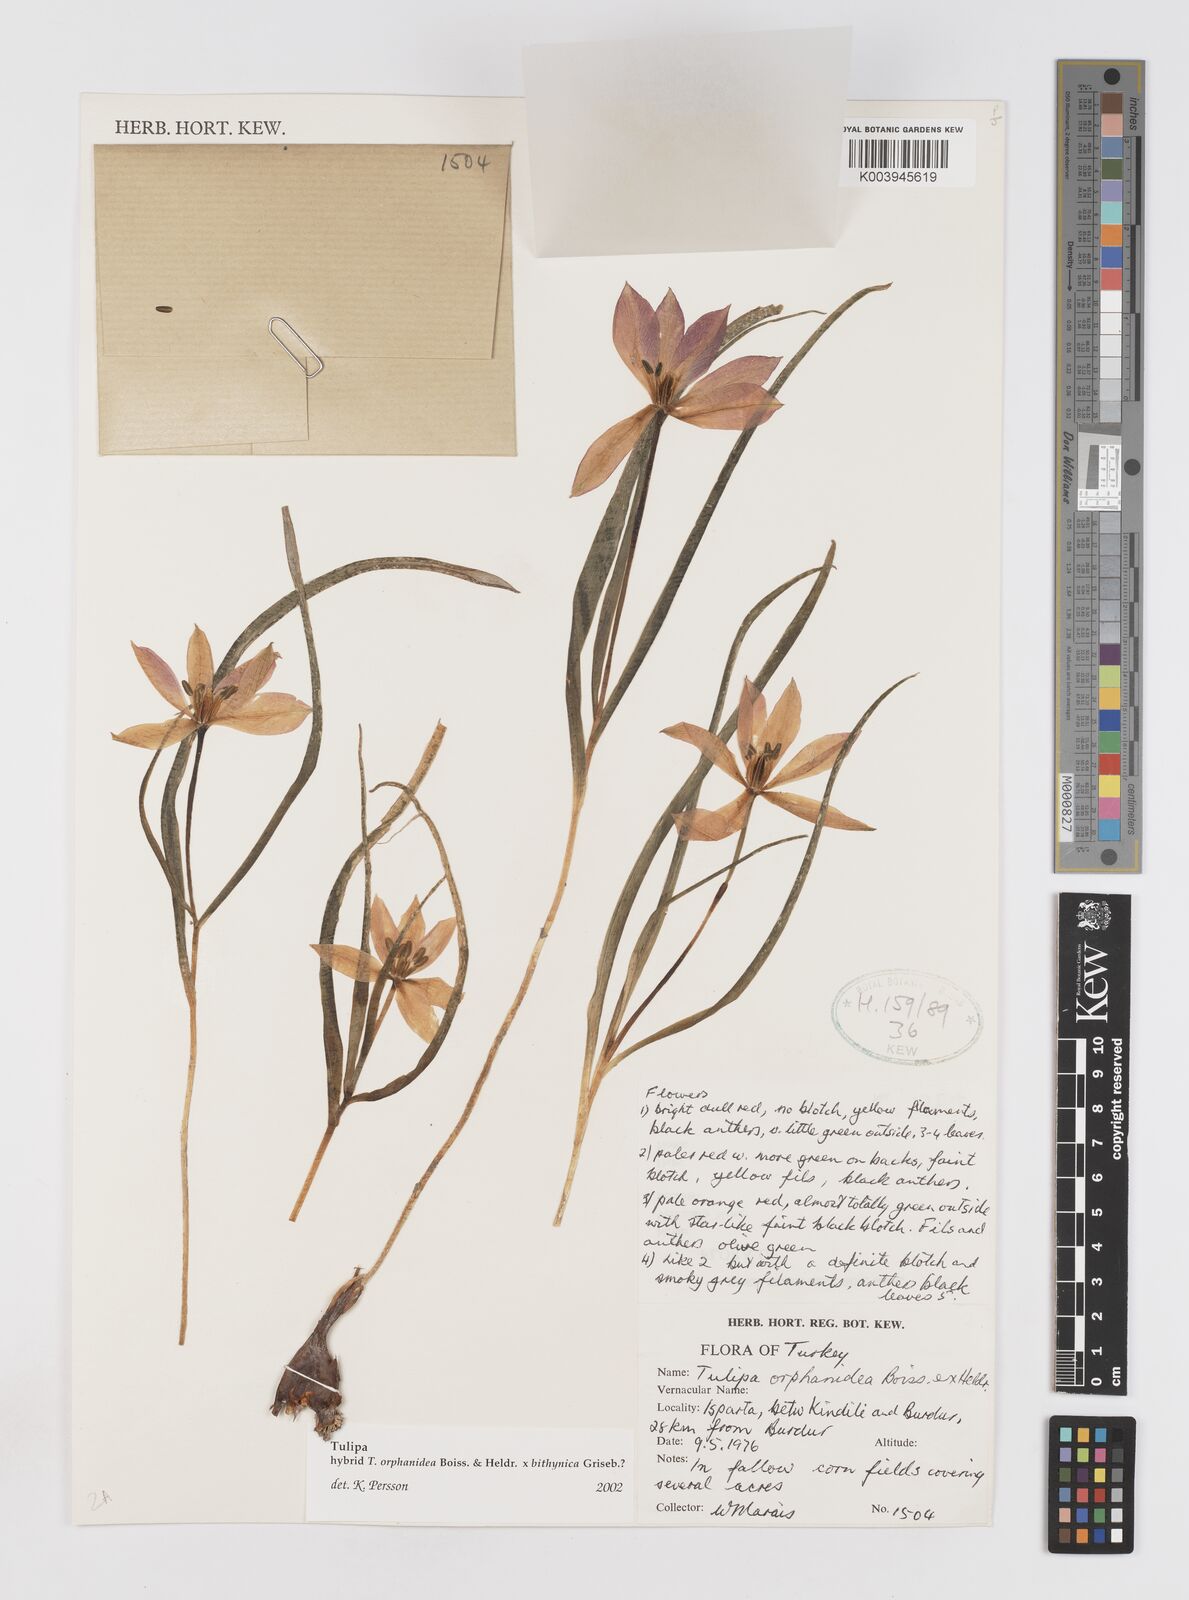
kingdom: Plantae
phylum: Tracheophyta
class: Liliopsida
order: Liliales
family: Liliaceae
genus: Tulipa
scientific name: Tulipa orphanidea
